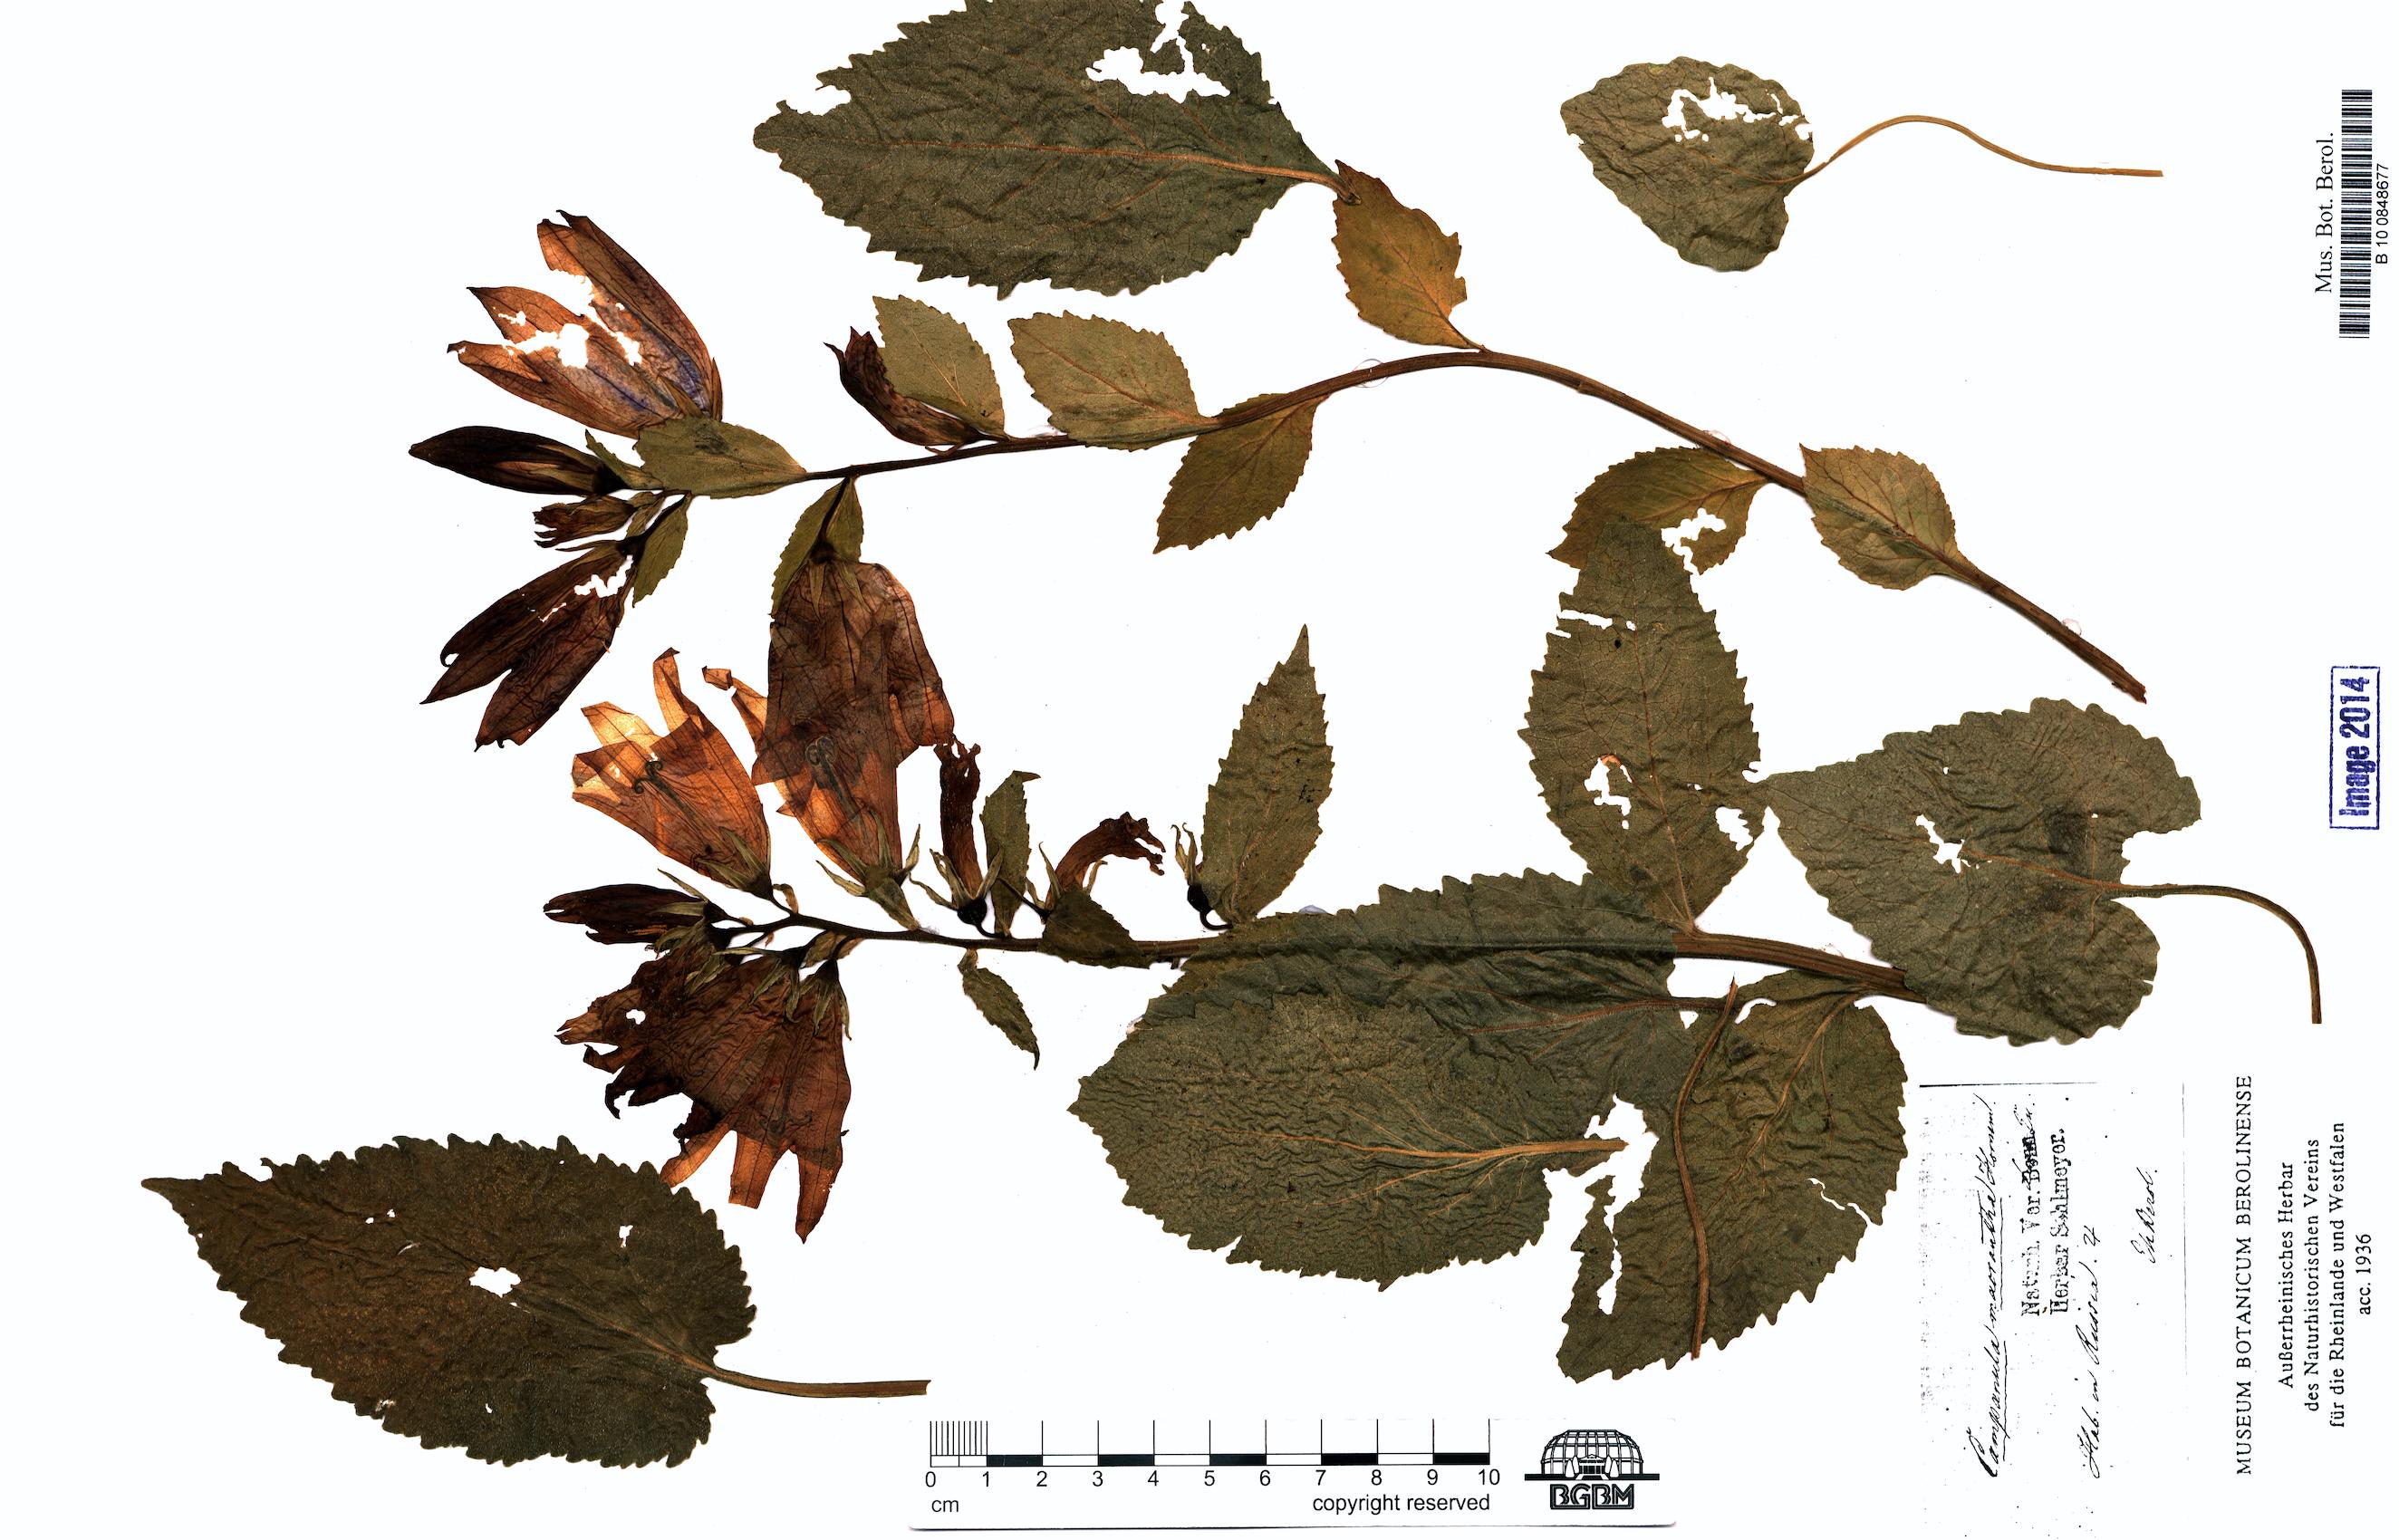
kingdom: Plantae
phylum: Tracheophyta
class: Magnoliopsida
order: Asterales
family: Campanulaceae
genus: Campanula
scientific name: Campanula latifolia
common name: Giant bellflower
